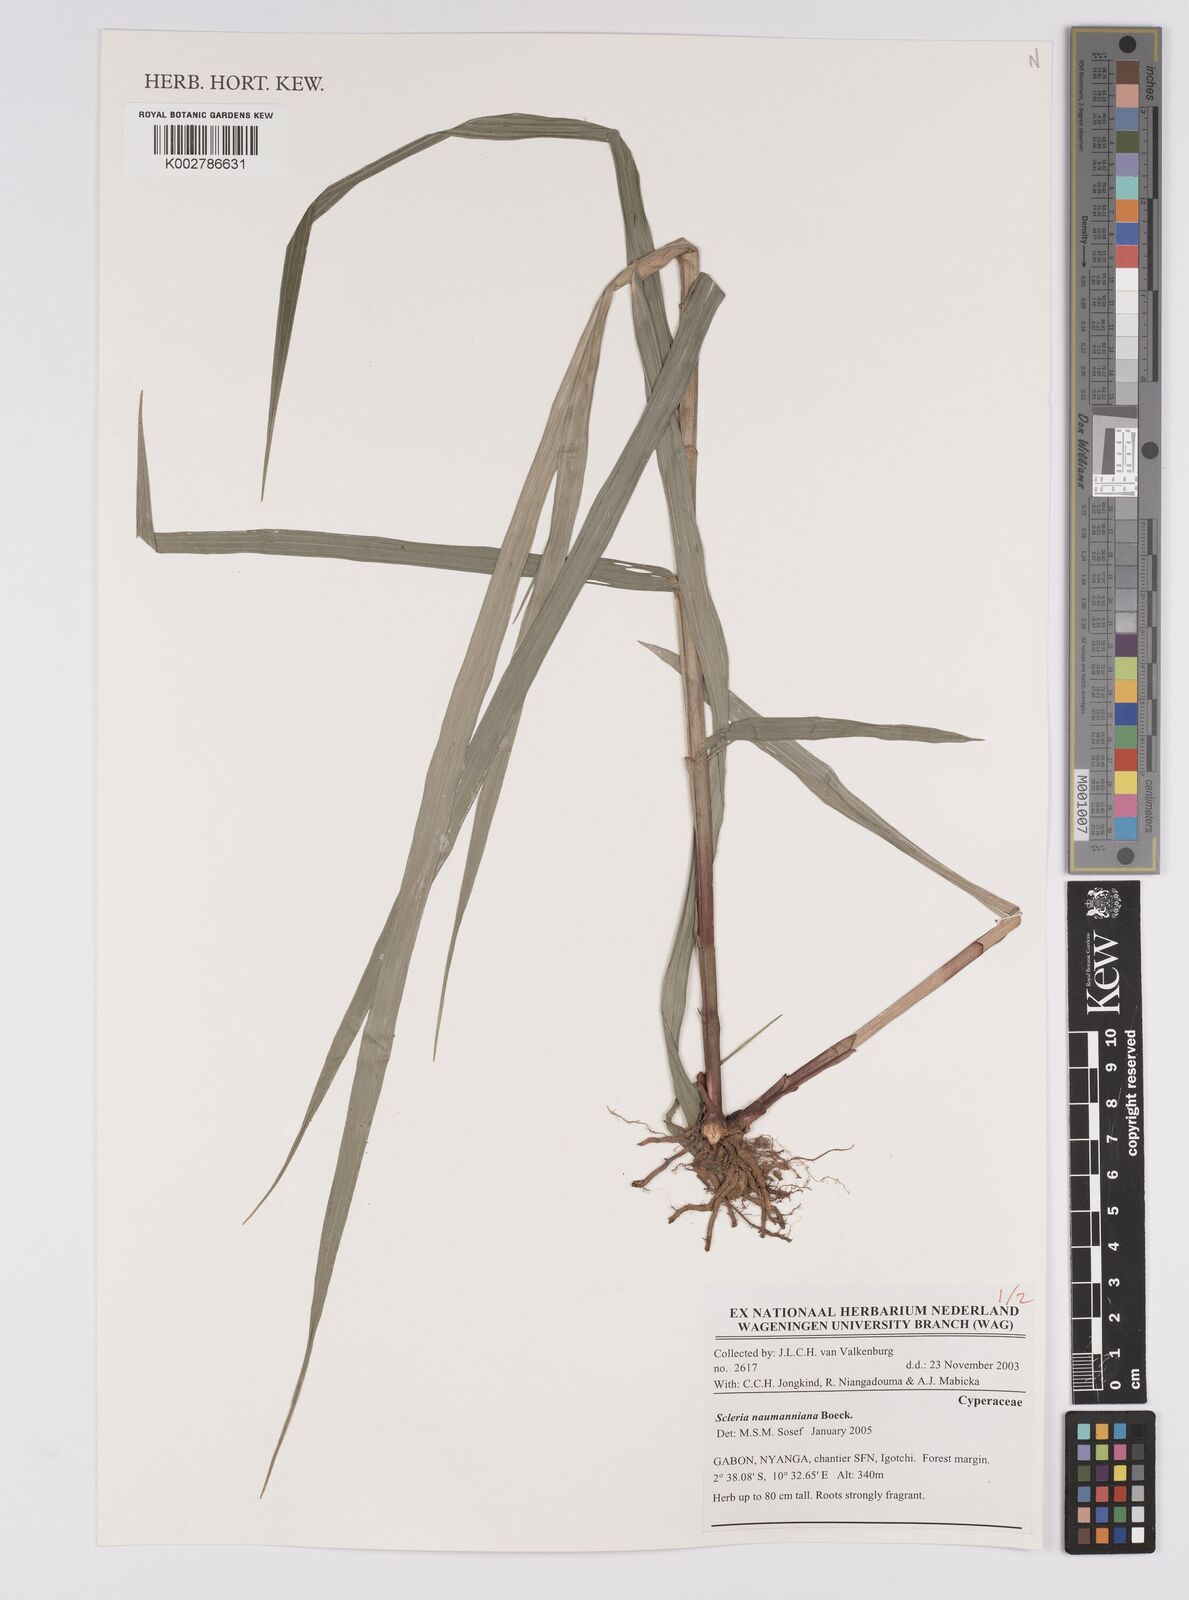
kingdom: Plantae
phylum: Tracheophyta
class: Liliopsida
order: Poales
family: Cyperaceae
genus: Scleria
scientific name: Scleria naumanniana
